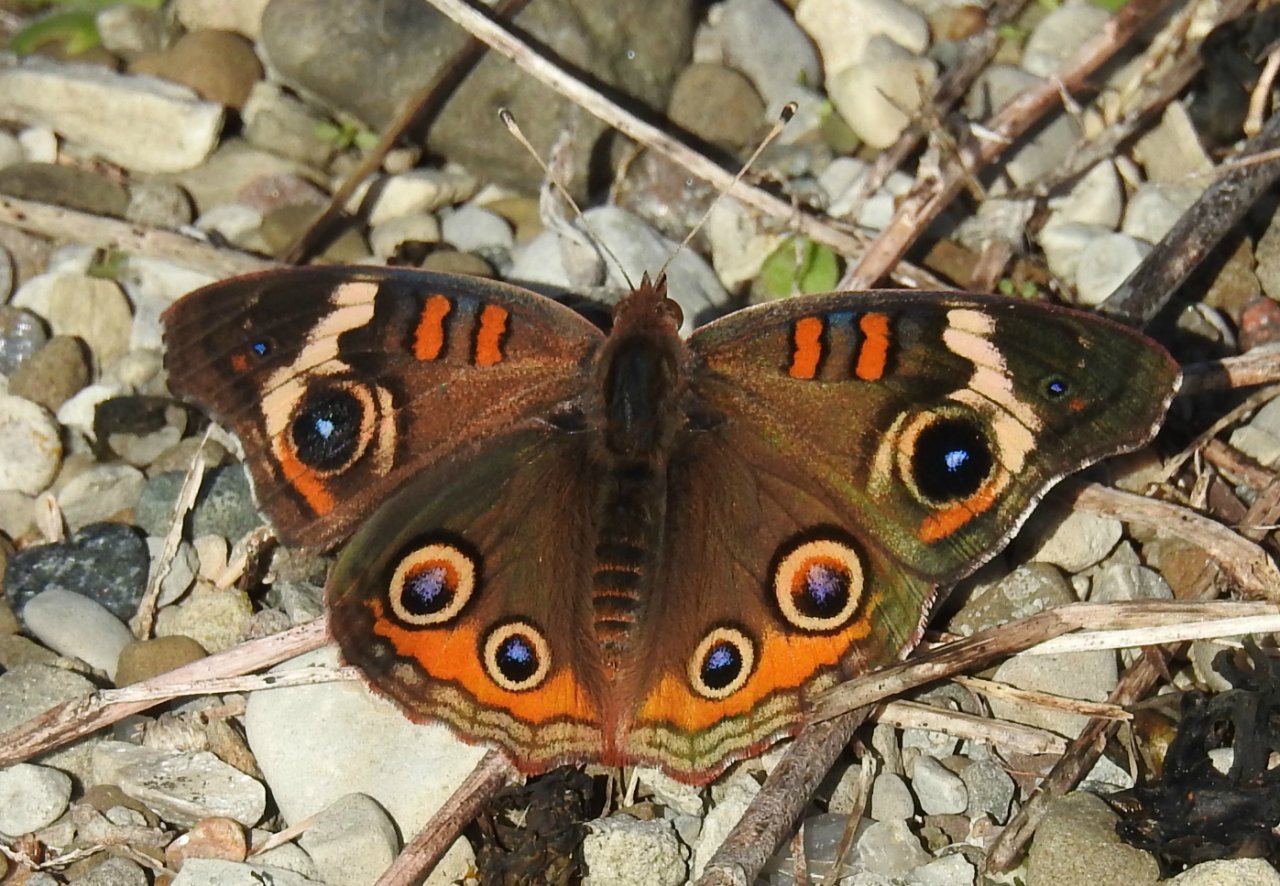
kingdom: Animalia
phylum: Arthropoda
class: Insecta
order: Lepidoptera
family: Nymphalidae
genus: Junonia
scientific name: Junonia coenia
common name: Common Buckeye
